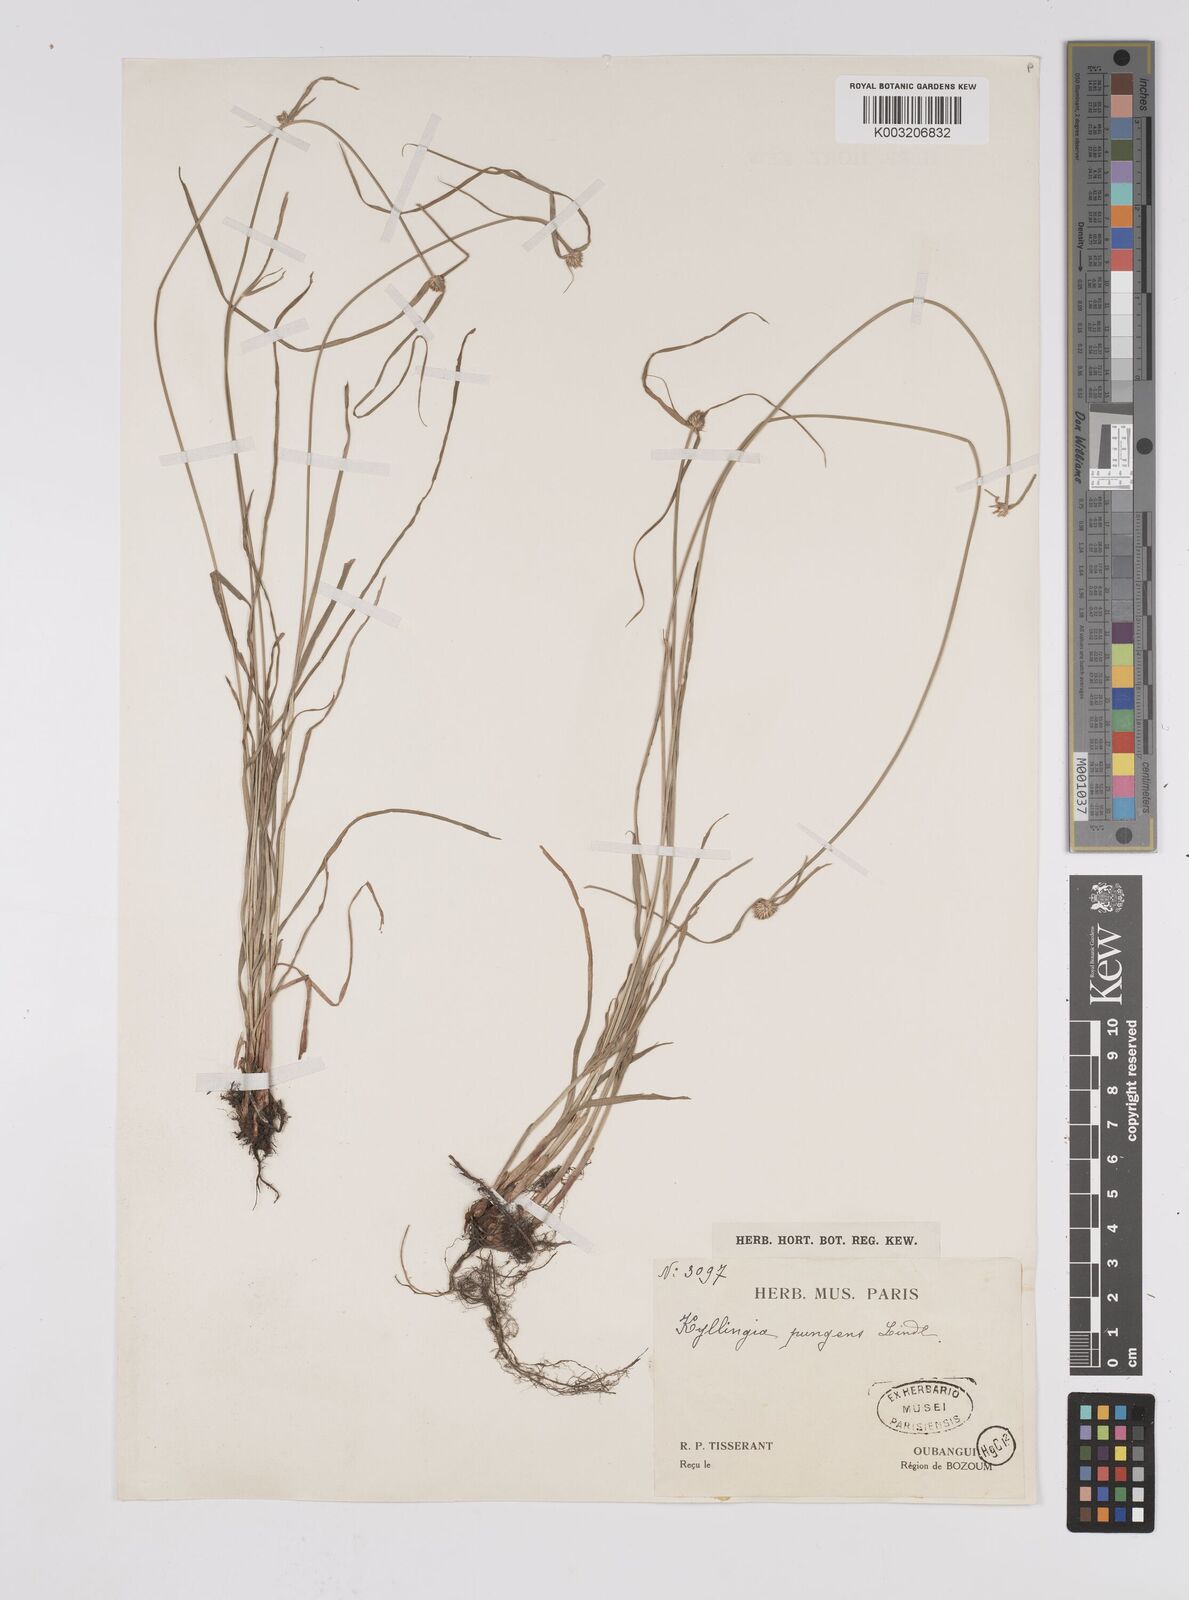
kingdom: Plantae
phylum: Tracheophyta
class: Liliopsida
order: Poales
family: Cyperaceae
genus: Cyperus
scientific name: Cyperus erectus
